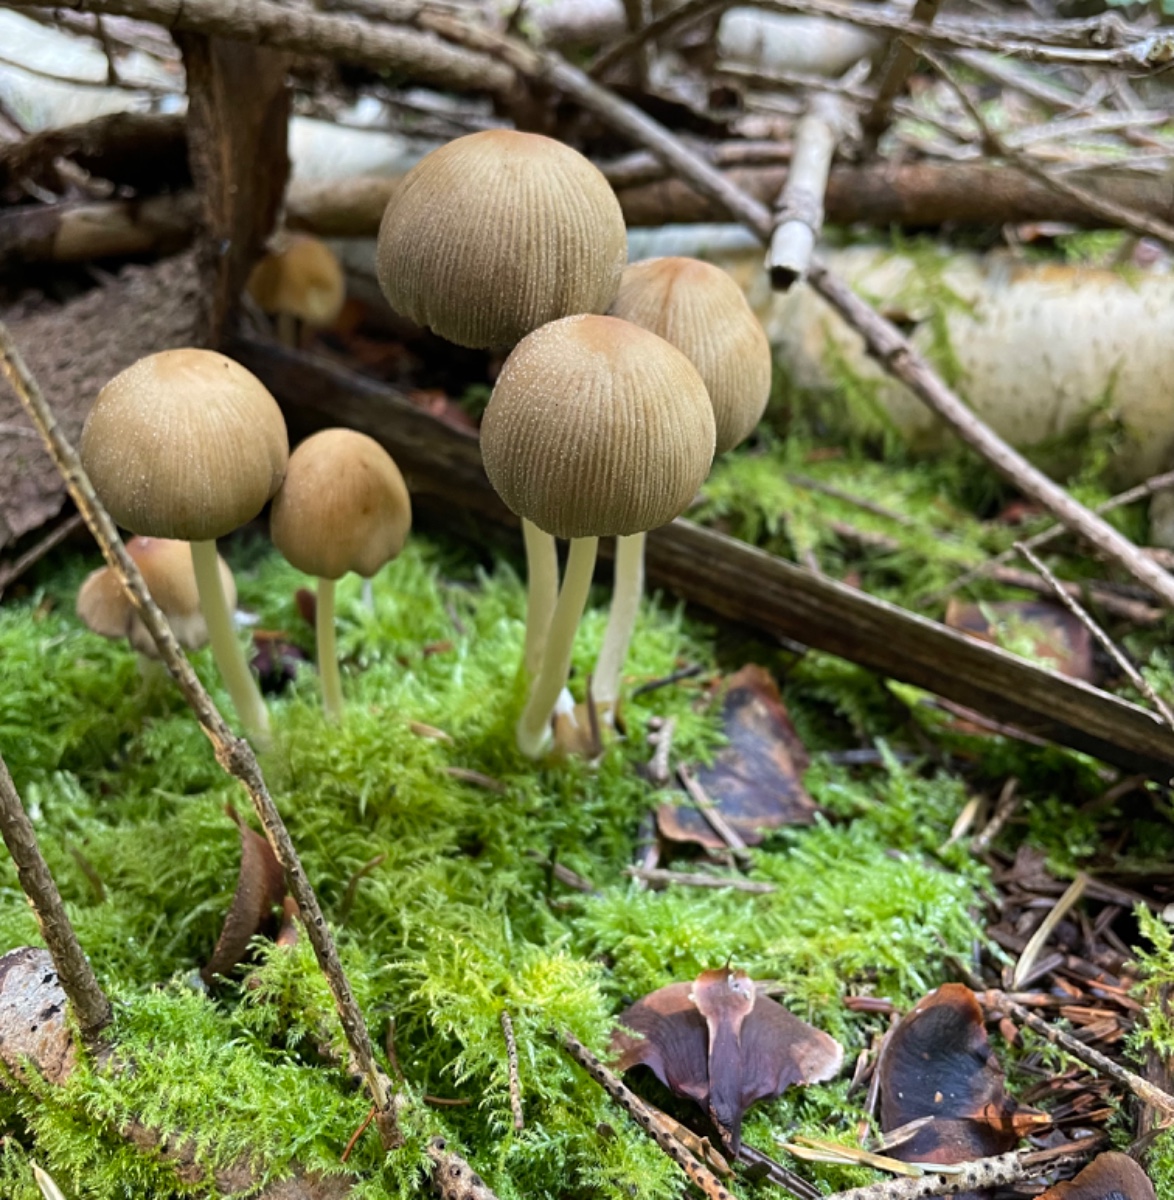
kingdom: Fungi
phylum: Basidiomycota
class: Agaricomycetes
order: Agaricales
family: Psathyrellaceae
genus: Coprinellus
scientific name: Coprinellus
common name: blækhat
